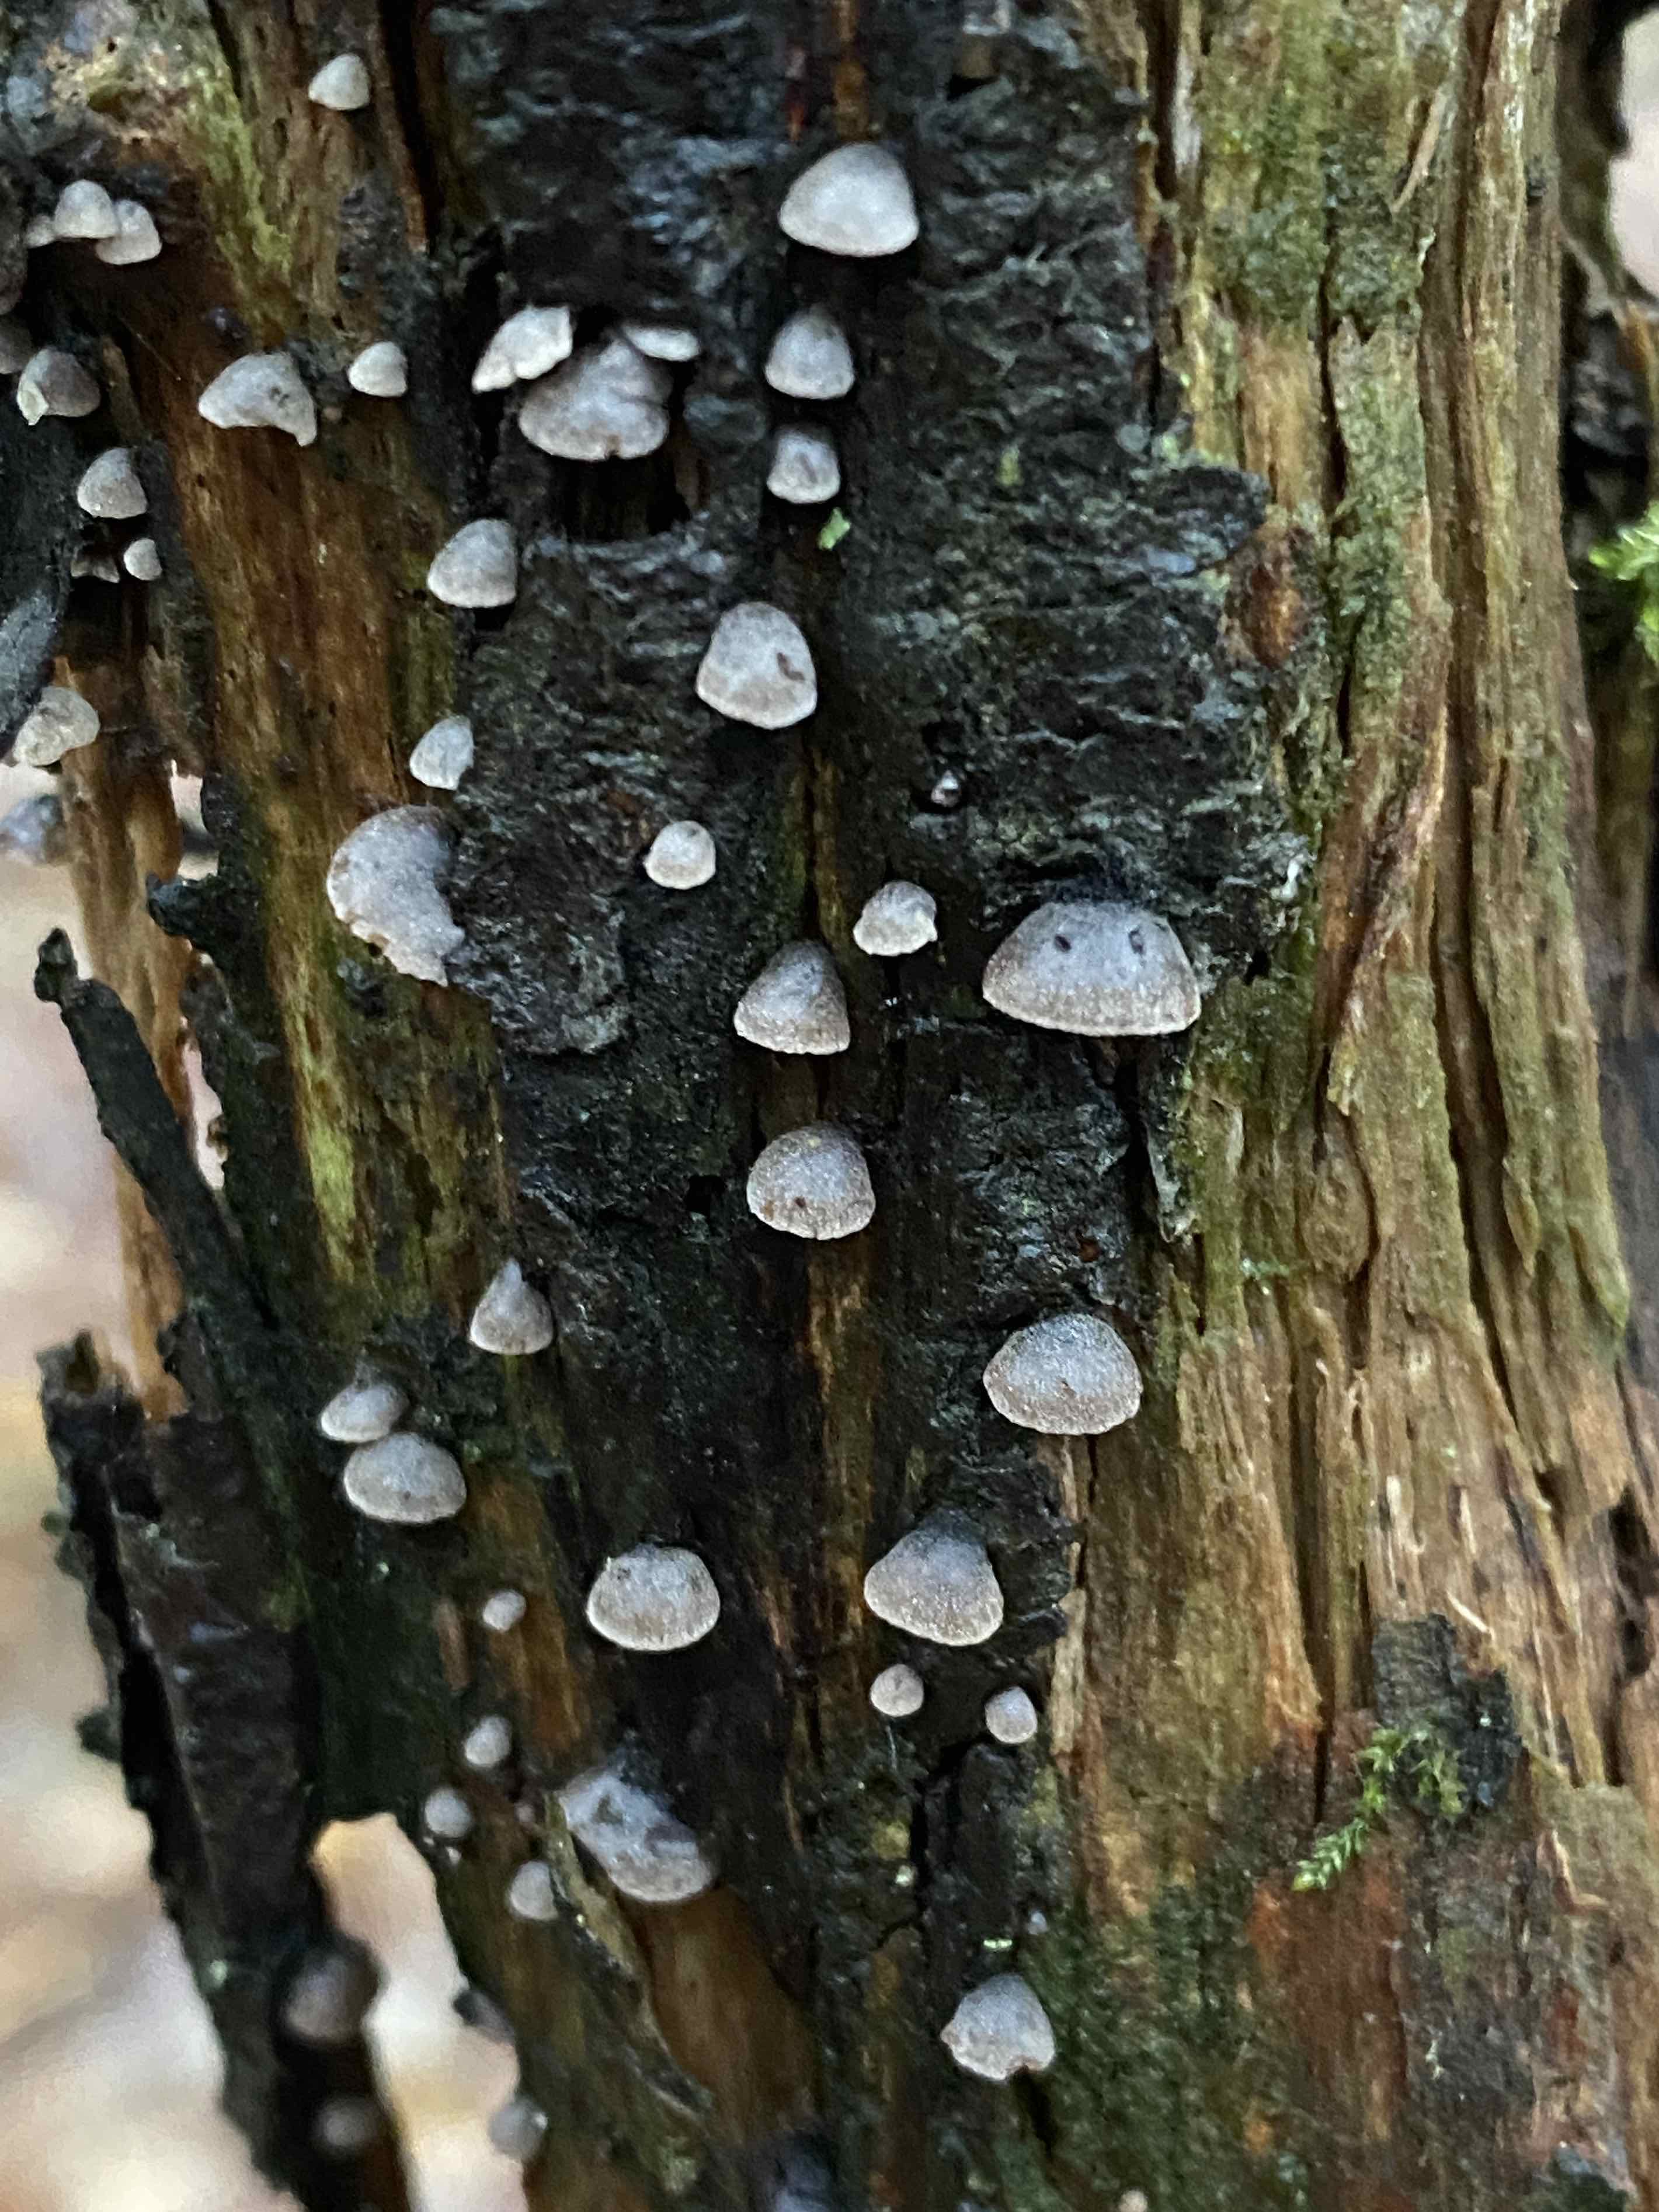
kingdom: Fungi
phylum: Basidiomycota
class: Agaricomycetes
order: Agaricales
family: Pleurotaceae
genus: Resupinatus
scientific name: Resupinatus trichotis
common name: mørkfiltet barkhat
